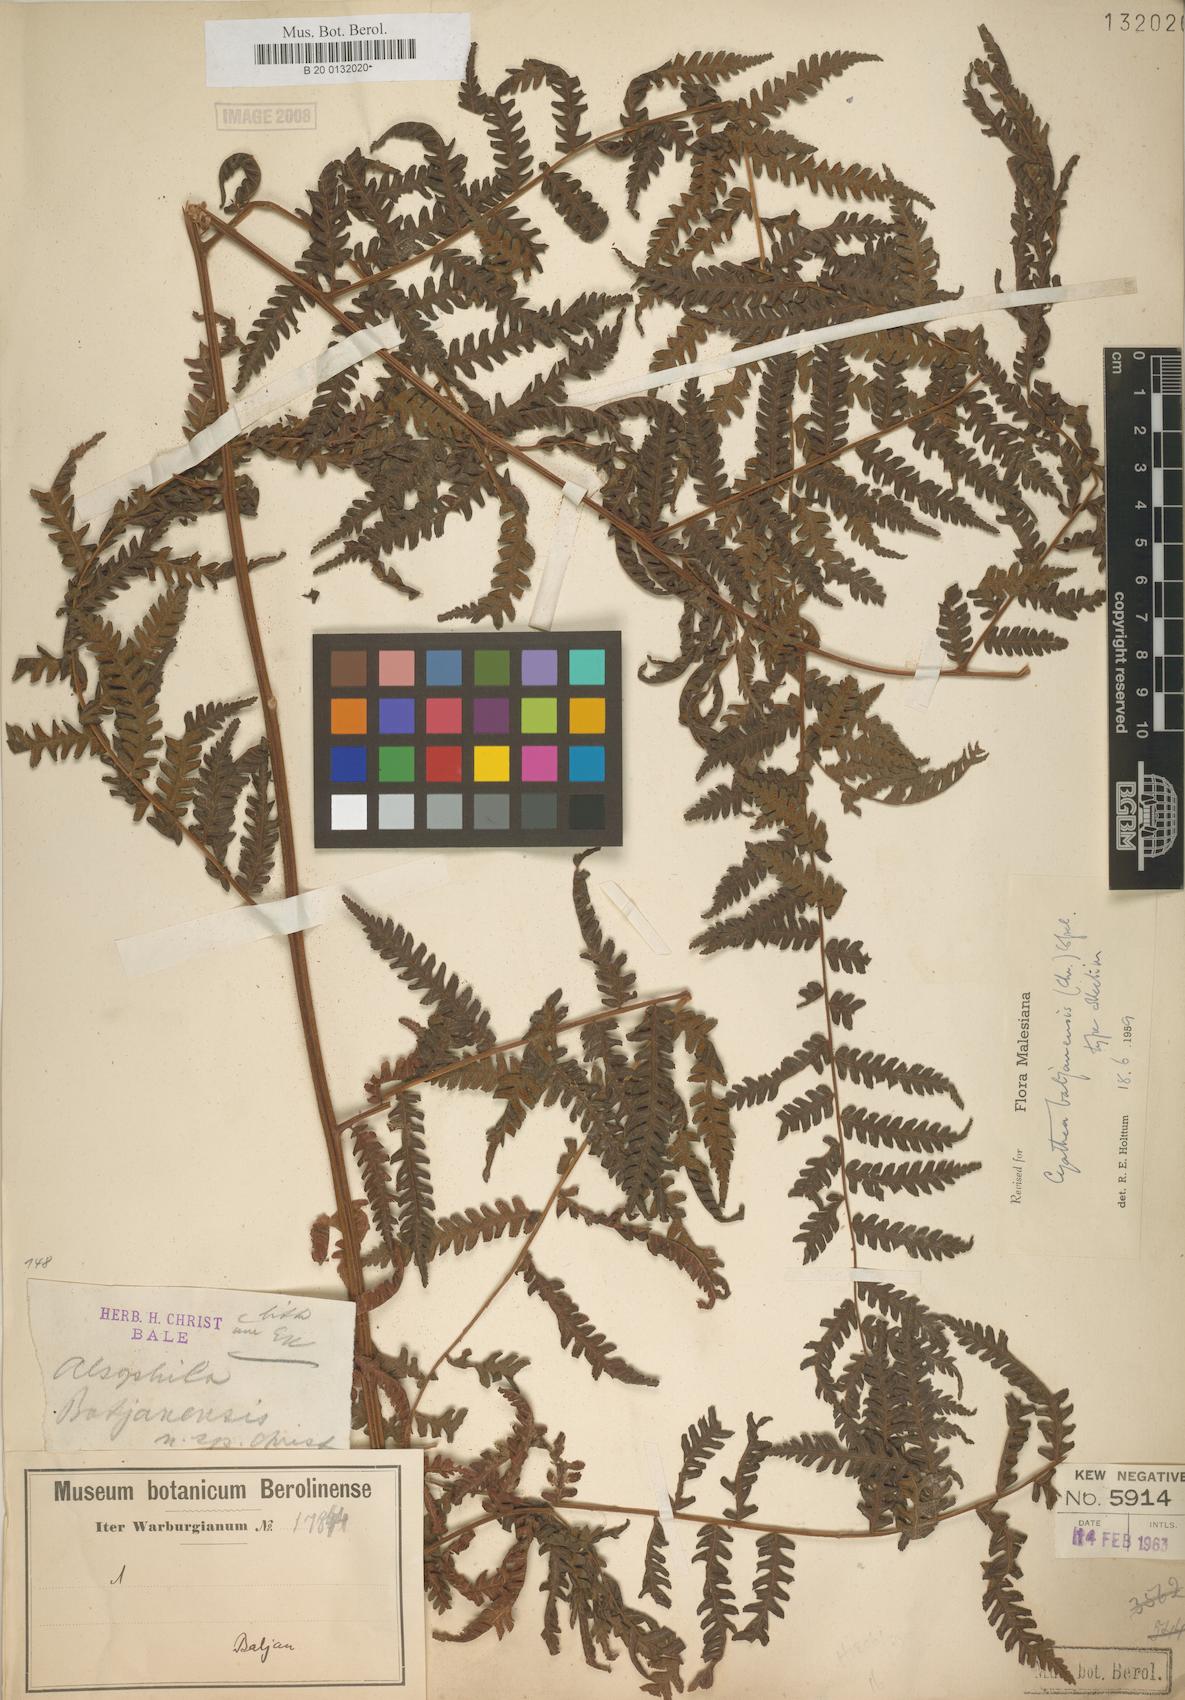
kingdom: Plantae
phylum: Tracheophyta
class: Polypodiopsida
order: Cyatheales
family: Cyatheaceae
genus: Alsophila
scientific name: Alsophila batjanensis
